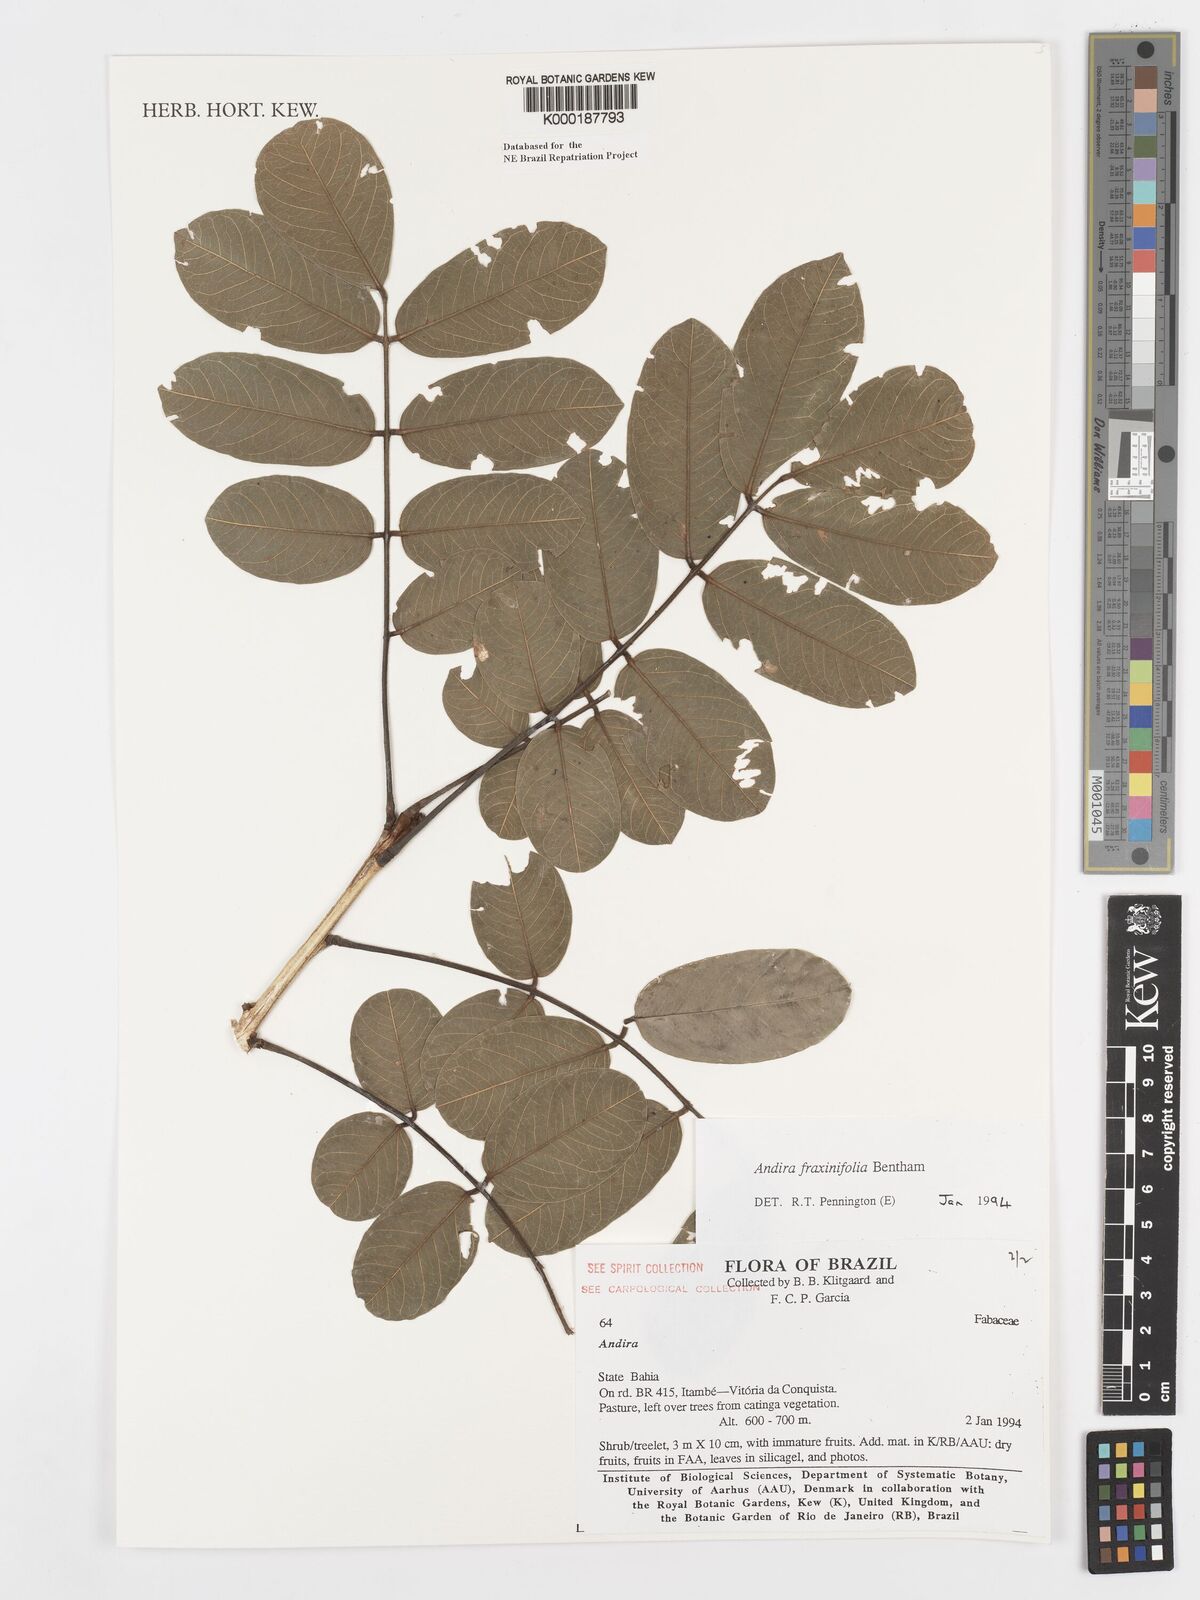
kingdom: Plantae
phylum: Tracheophyta
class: Magnoliopsida
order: Fabales
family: Fabaceae
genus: Andira
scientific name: Andira fraxinifolia
